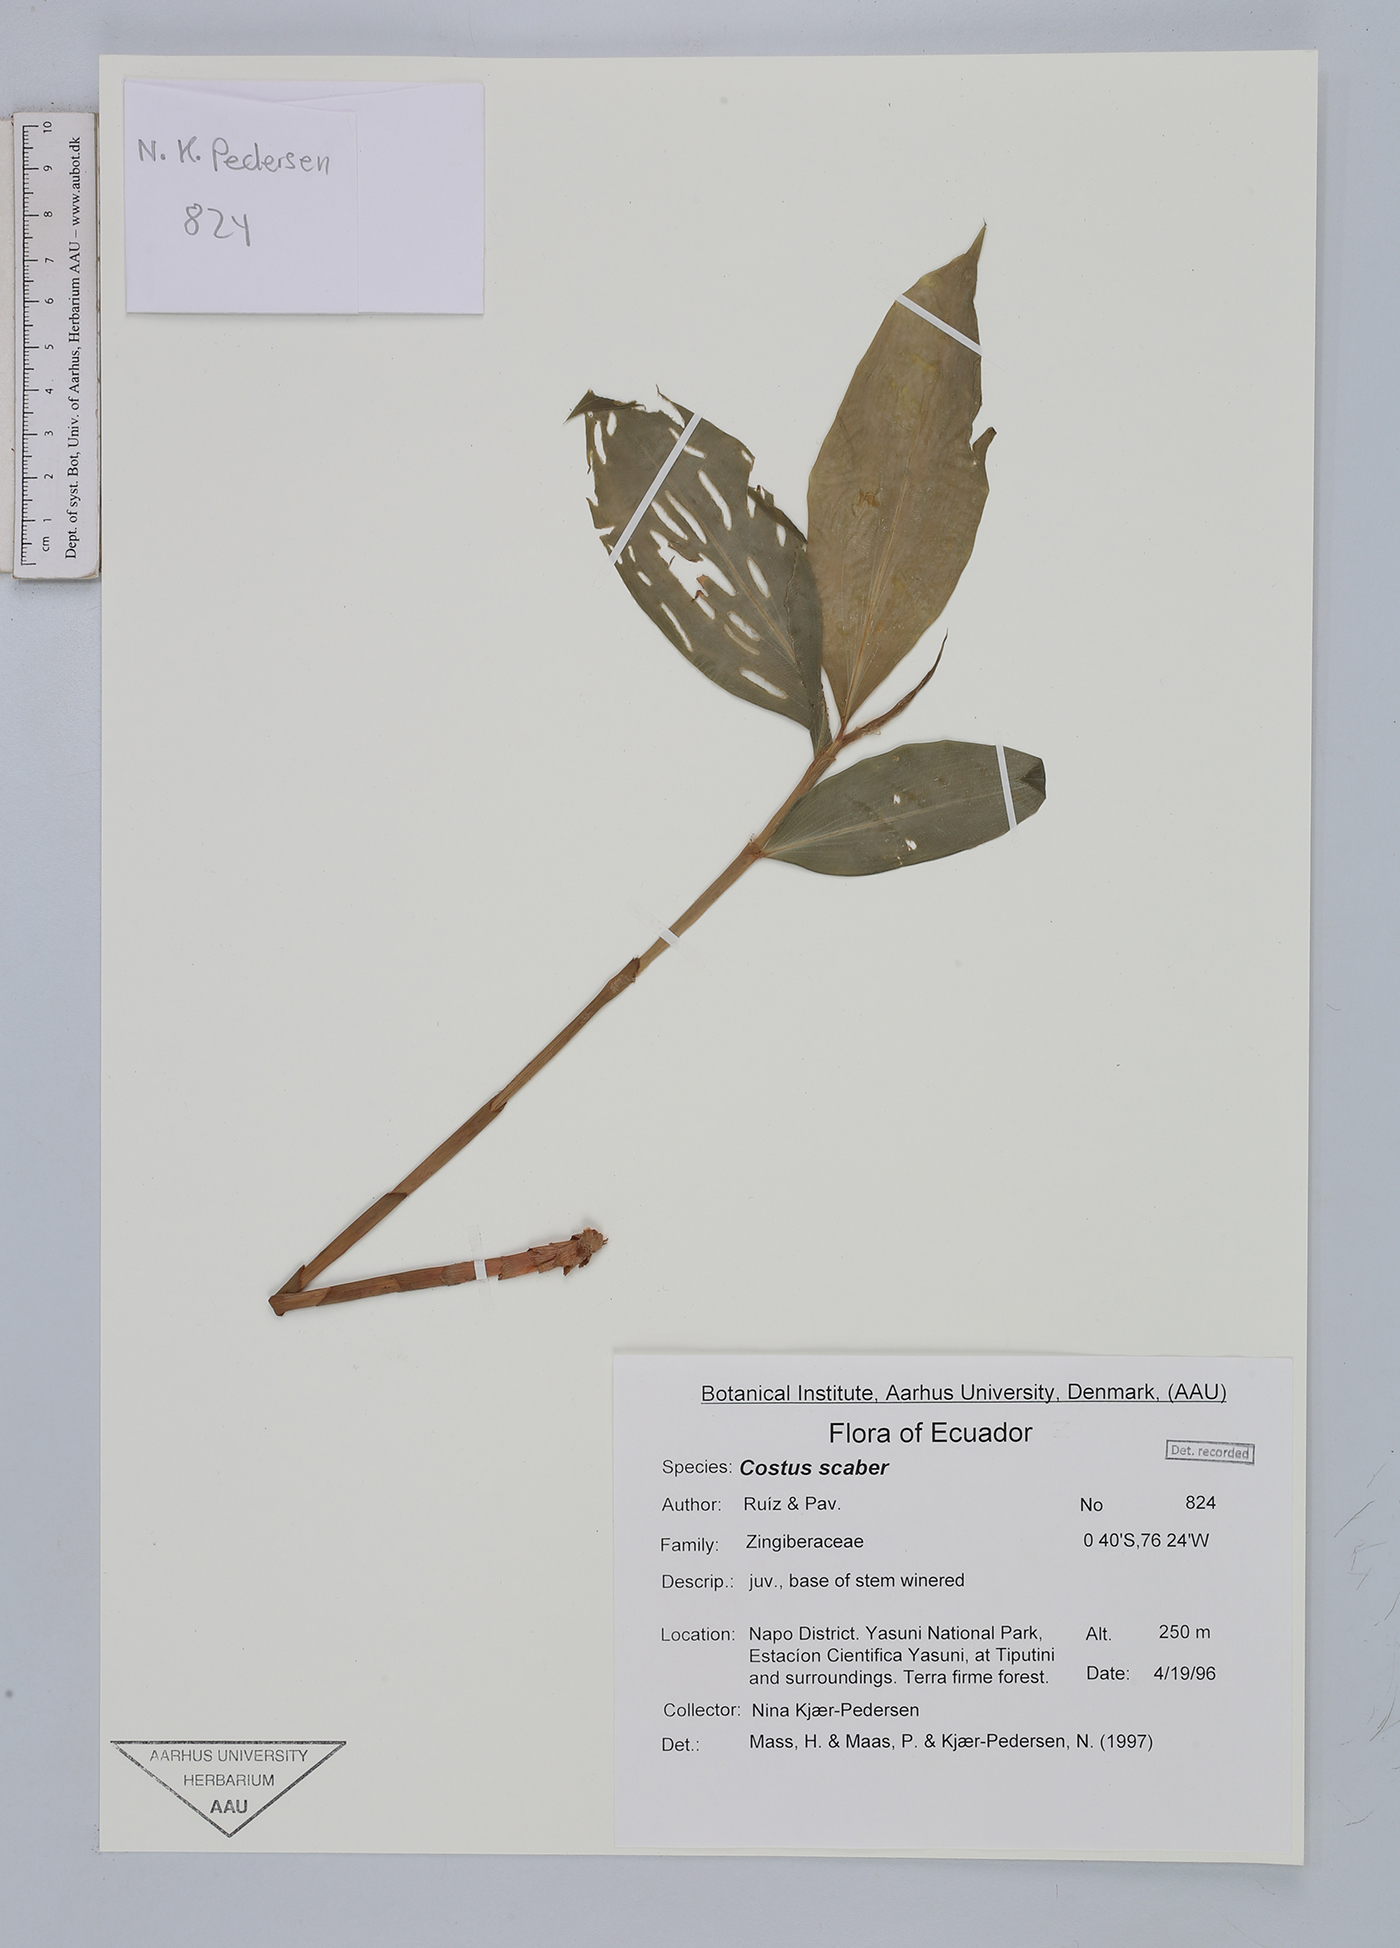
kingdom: Plantae
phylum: Tracheophyta
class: Liliopsida
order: Zingiberales
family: Costaceae
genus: Costus
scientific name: Costus scaber
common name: Spiral head ginger
